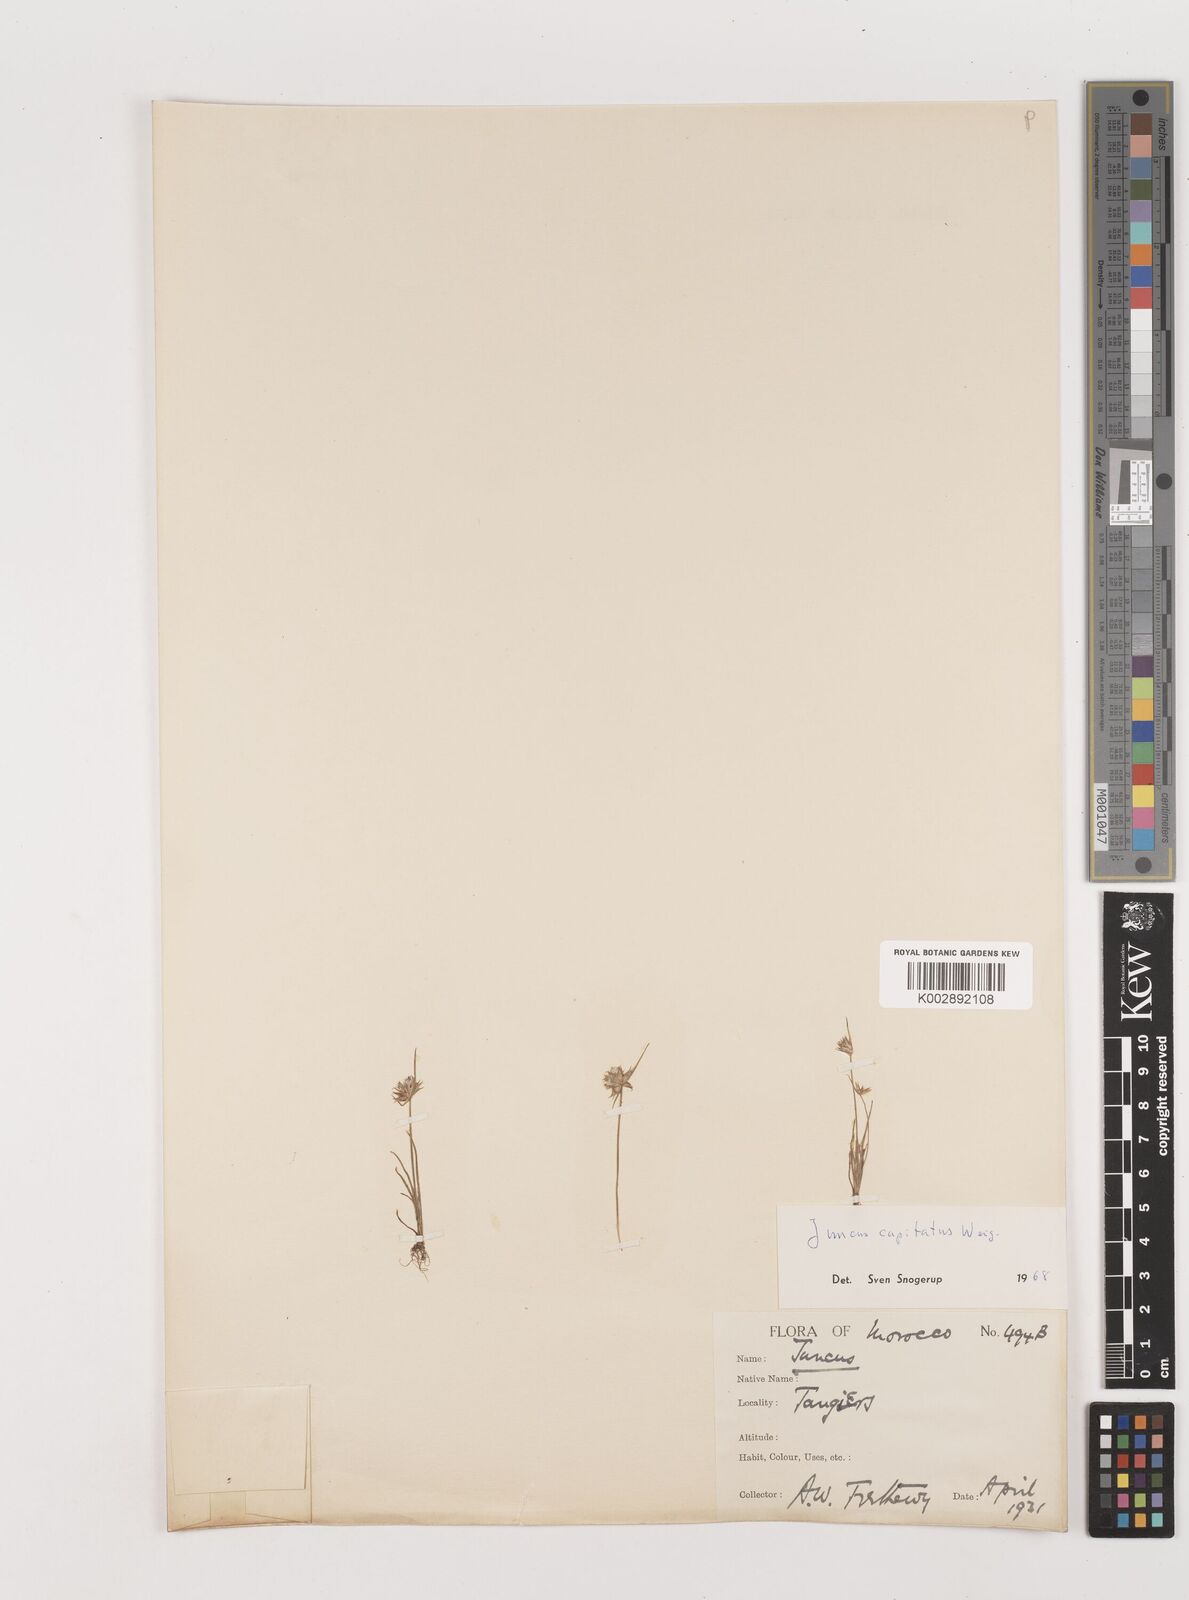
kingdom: Plantae
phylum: Tracheophyta
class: Liliopsida
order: Poales
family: Juncaceae
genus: Juncus
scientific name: Juncus capitatus
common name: Dwarf rush
